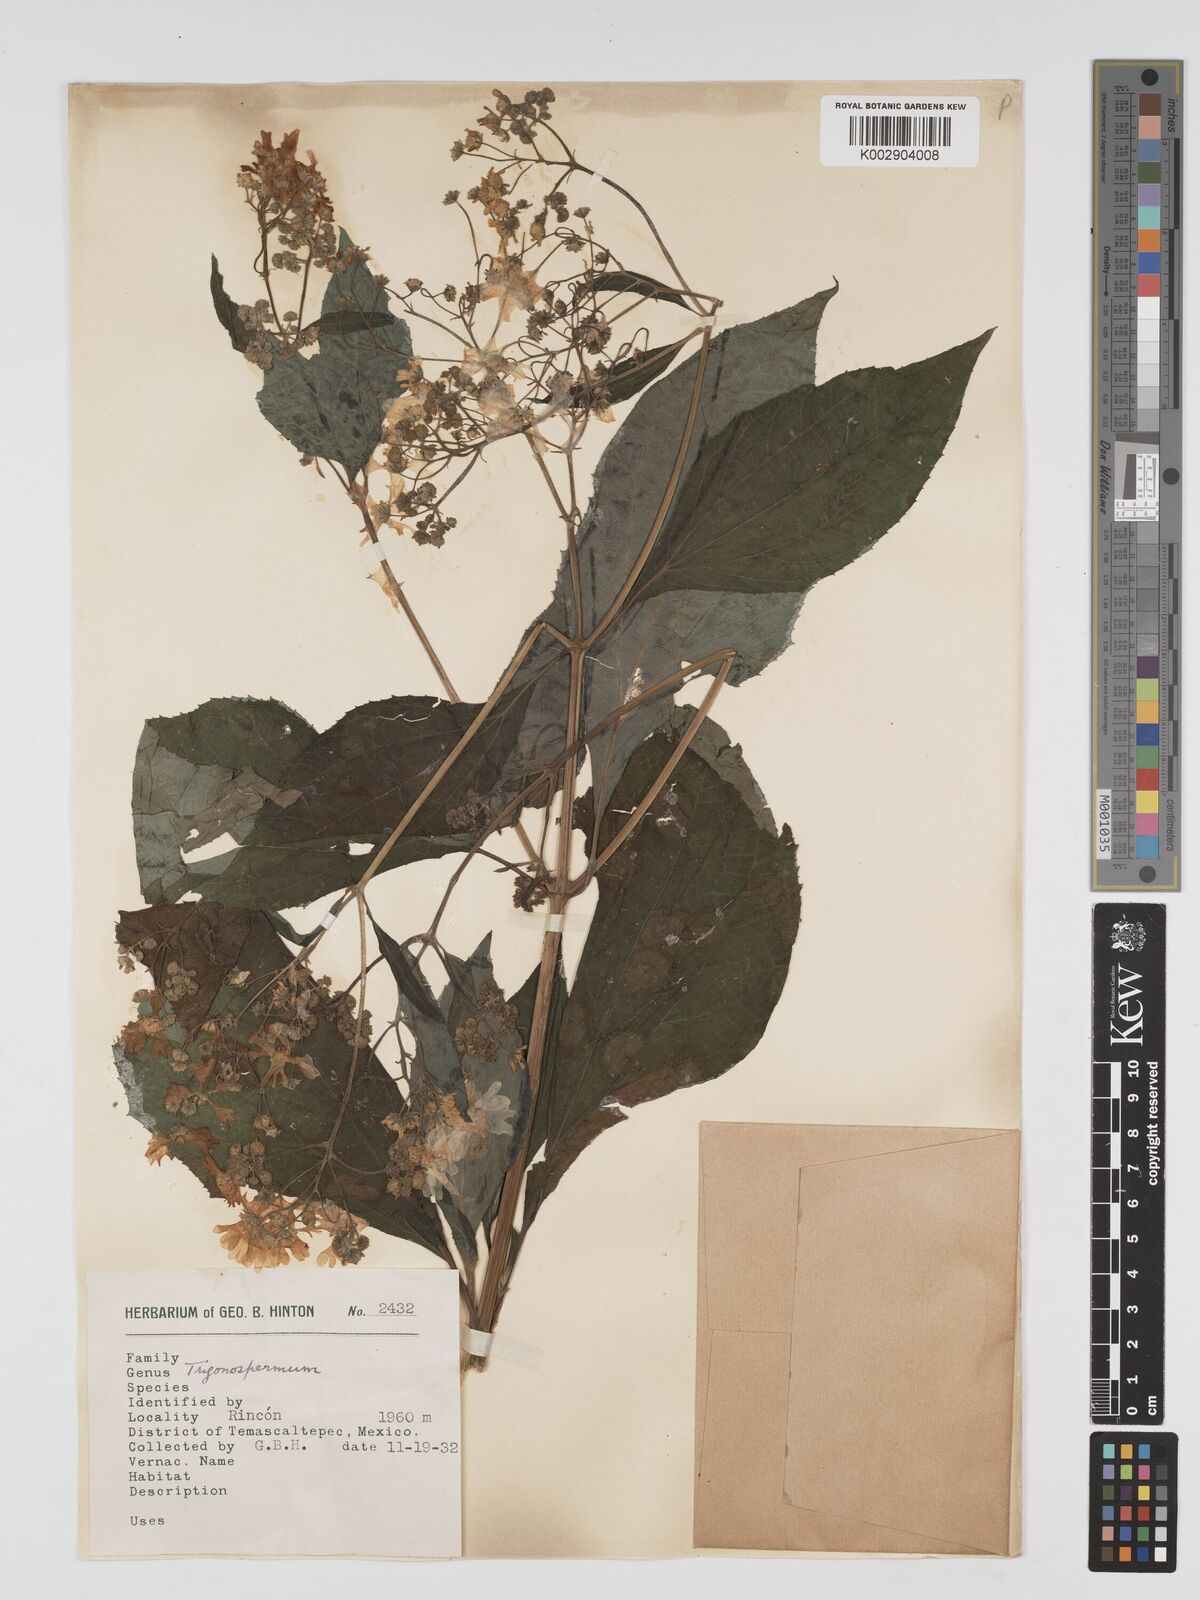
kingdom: Plantae
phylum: Tracheophyta
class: Magnoliopsida
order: Asterales
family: Asteraceae
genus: Trigonospermum
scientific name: Trigonospermum melampodioides
